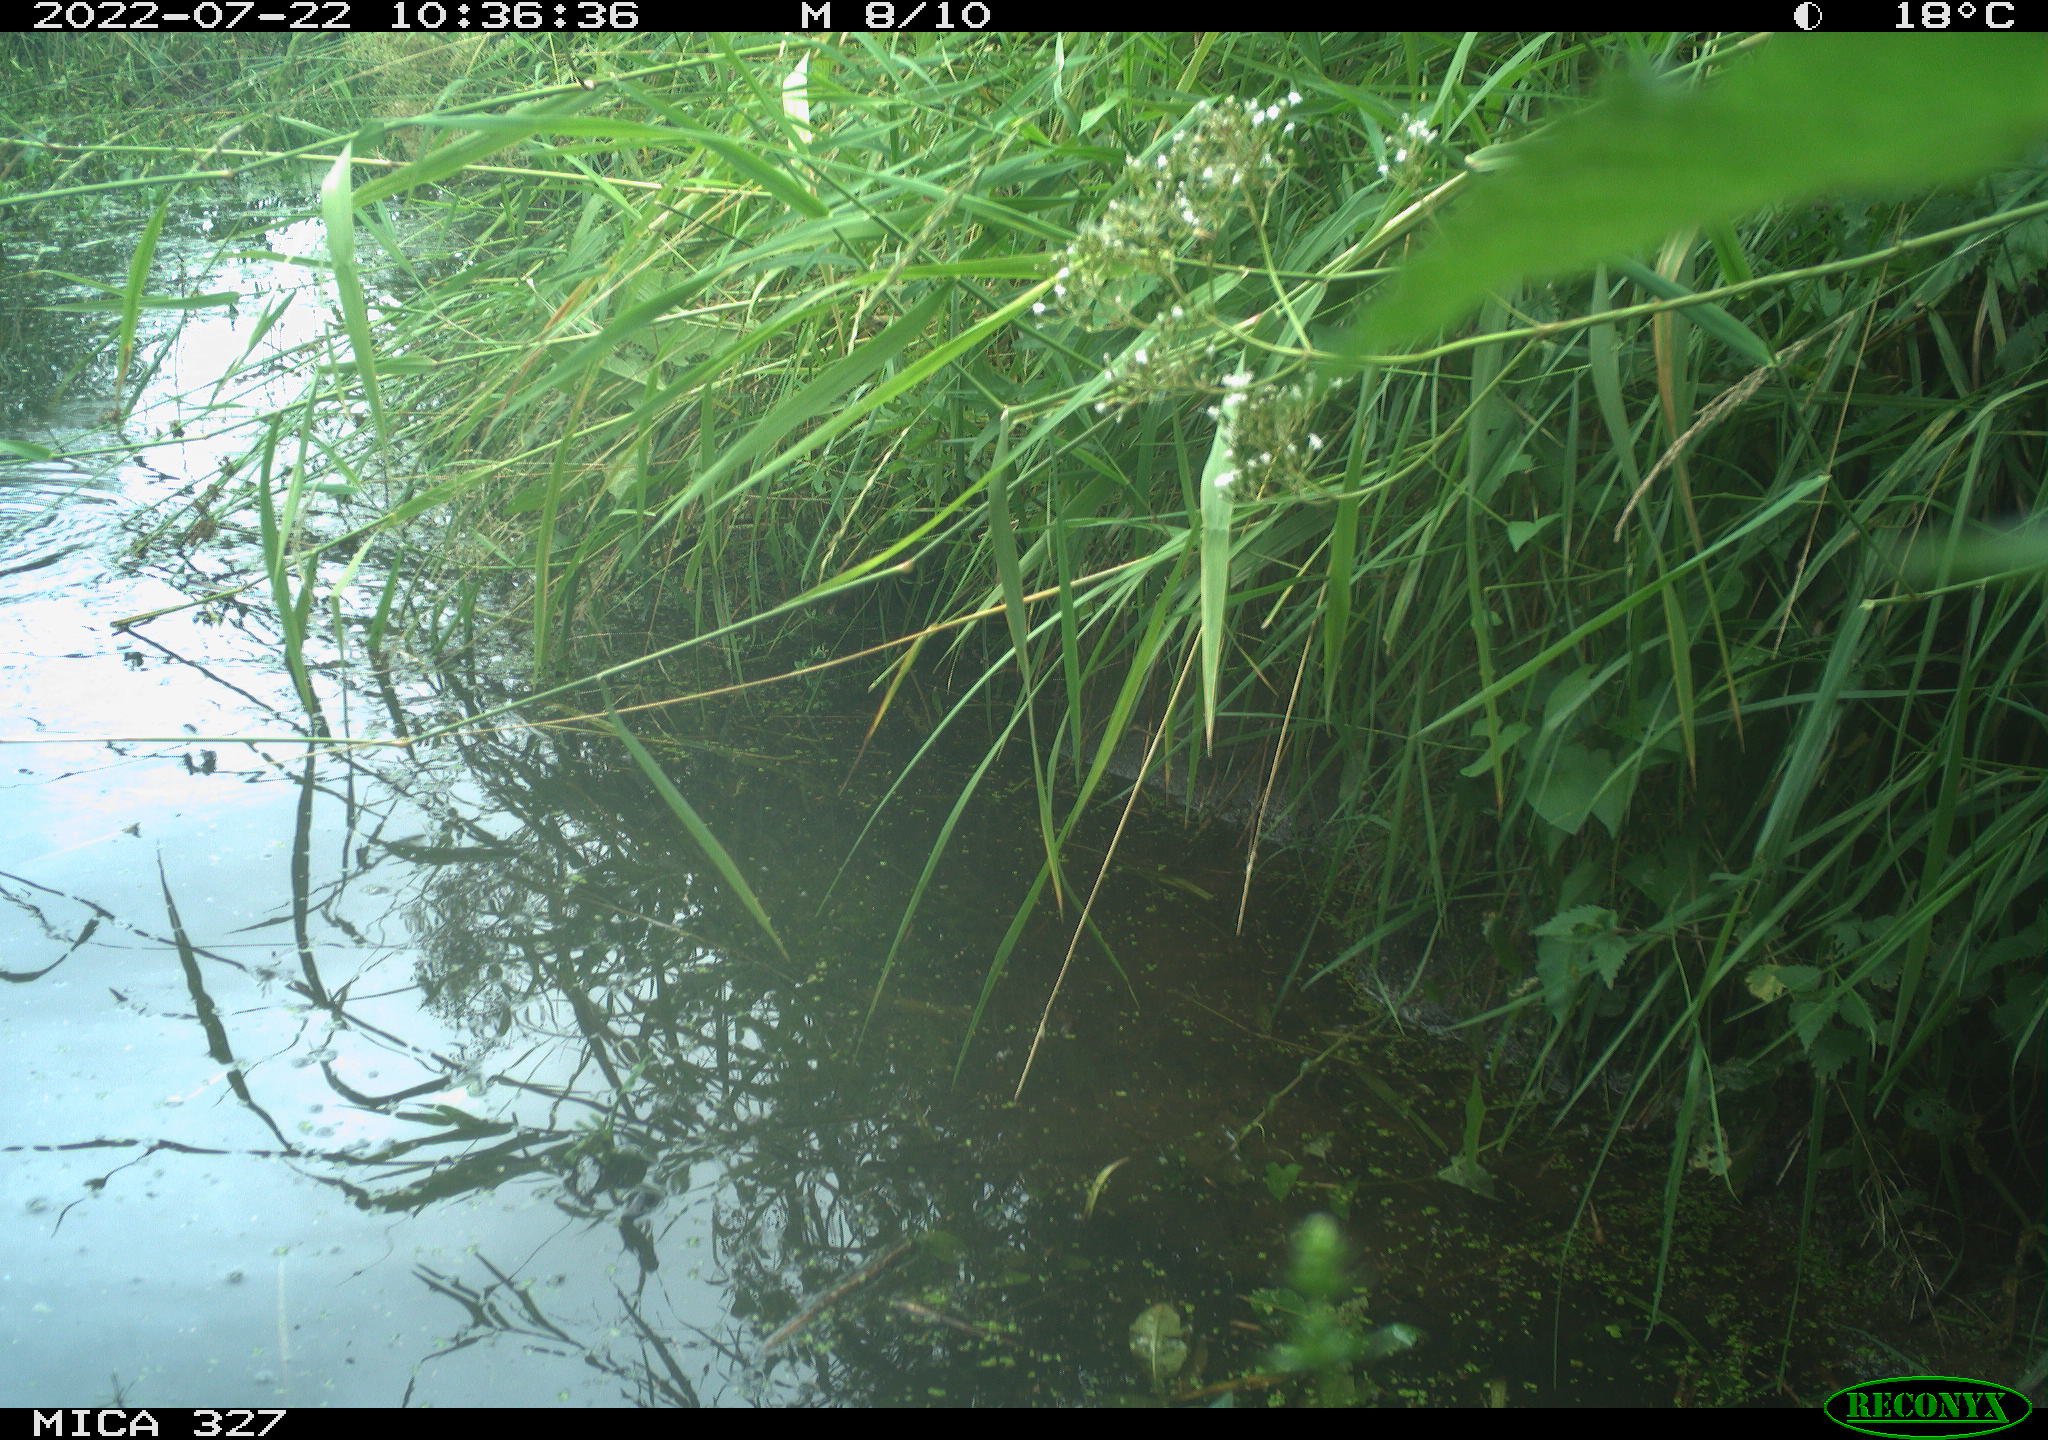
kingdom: Animalia
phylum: Chordata
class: Aves
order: Gruiformes
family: Rallidae
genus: Gallinula
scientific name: Gallinula chloropus
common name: Common moorhen
